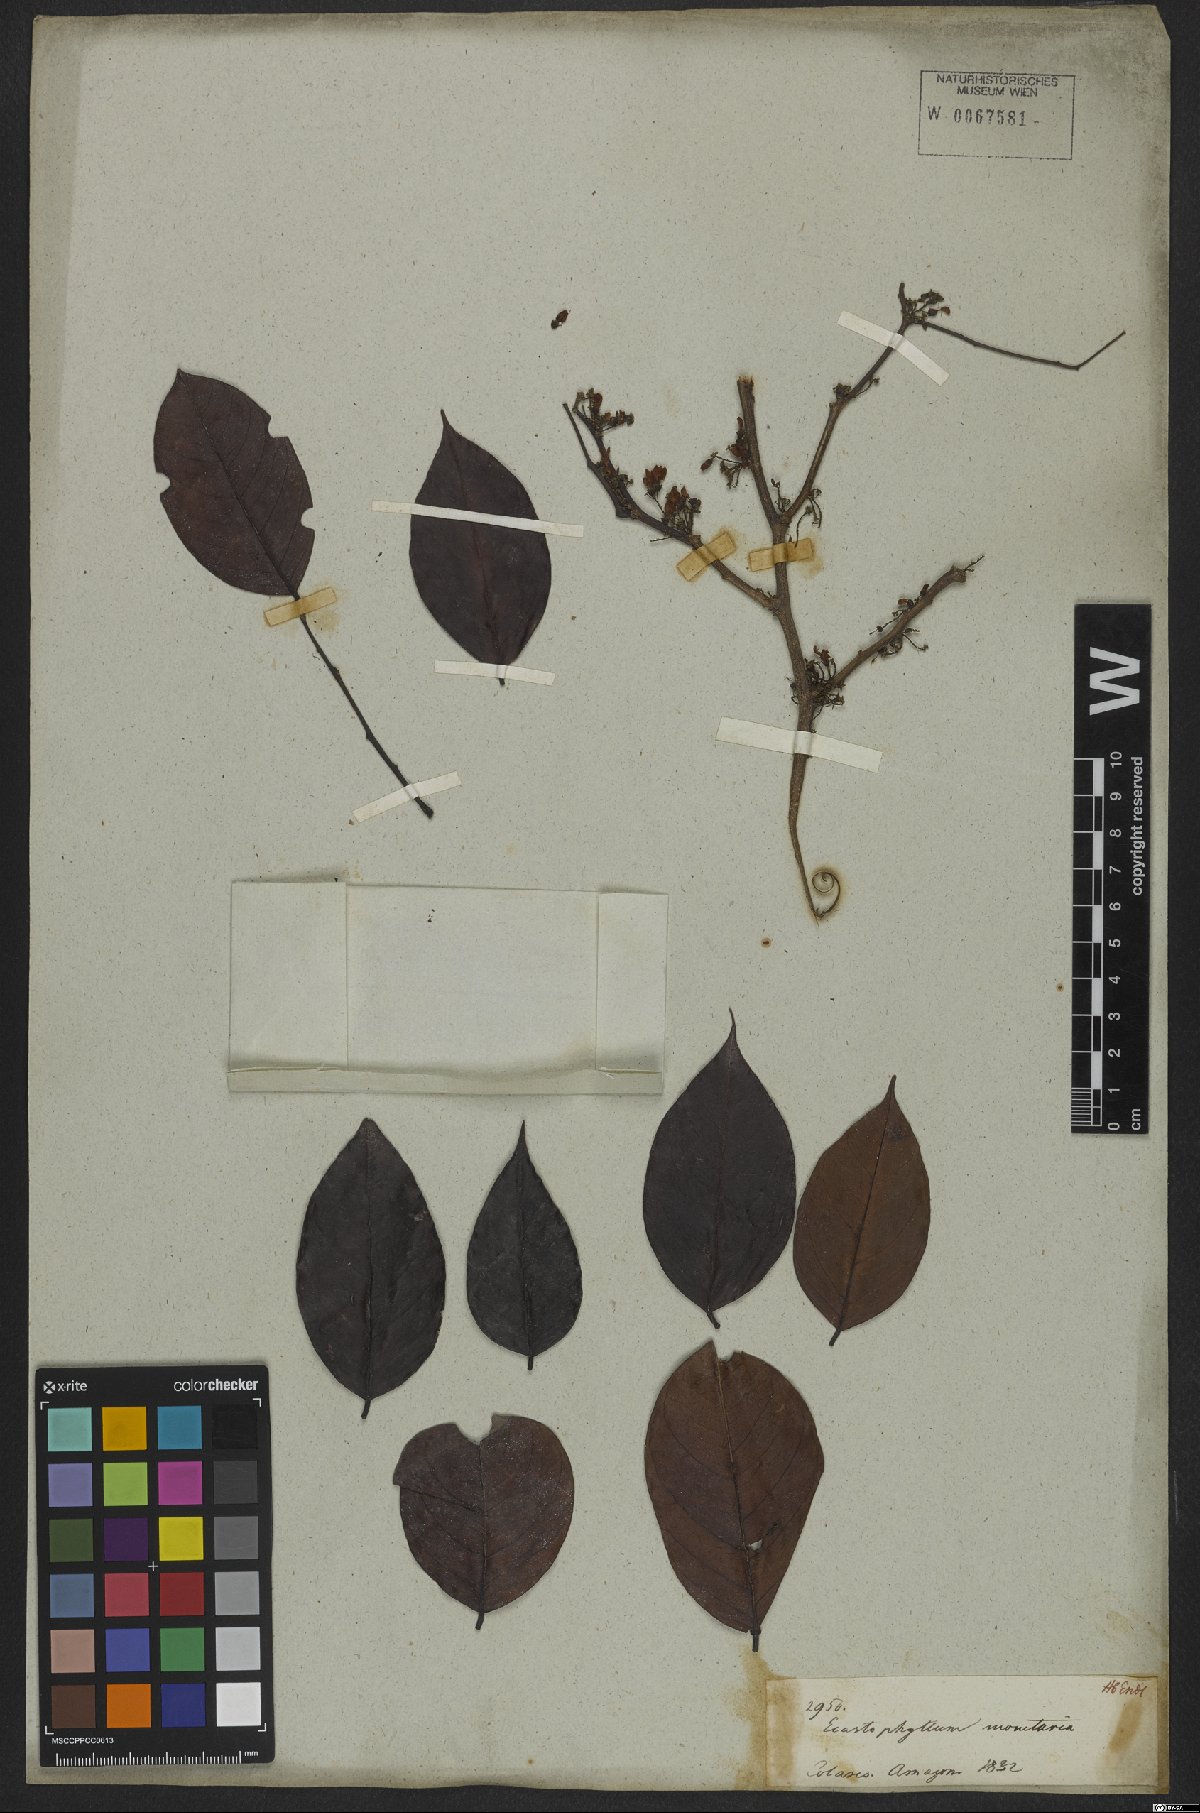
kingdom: Plantae
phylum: Tracheophyta
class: Magnoliopsida
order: Fabales
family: Fabaceae
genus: Dalbergia
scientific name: Dalbergia ovalis
